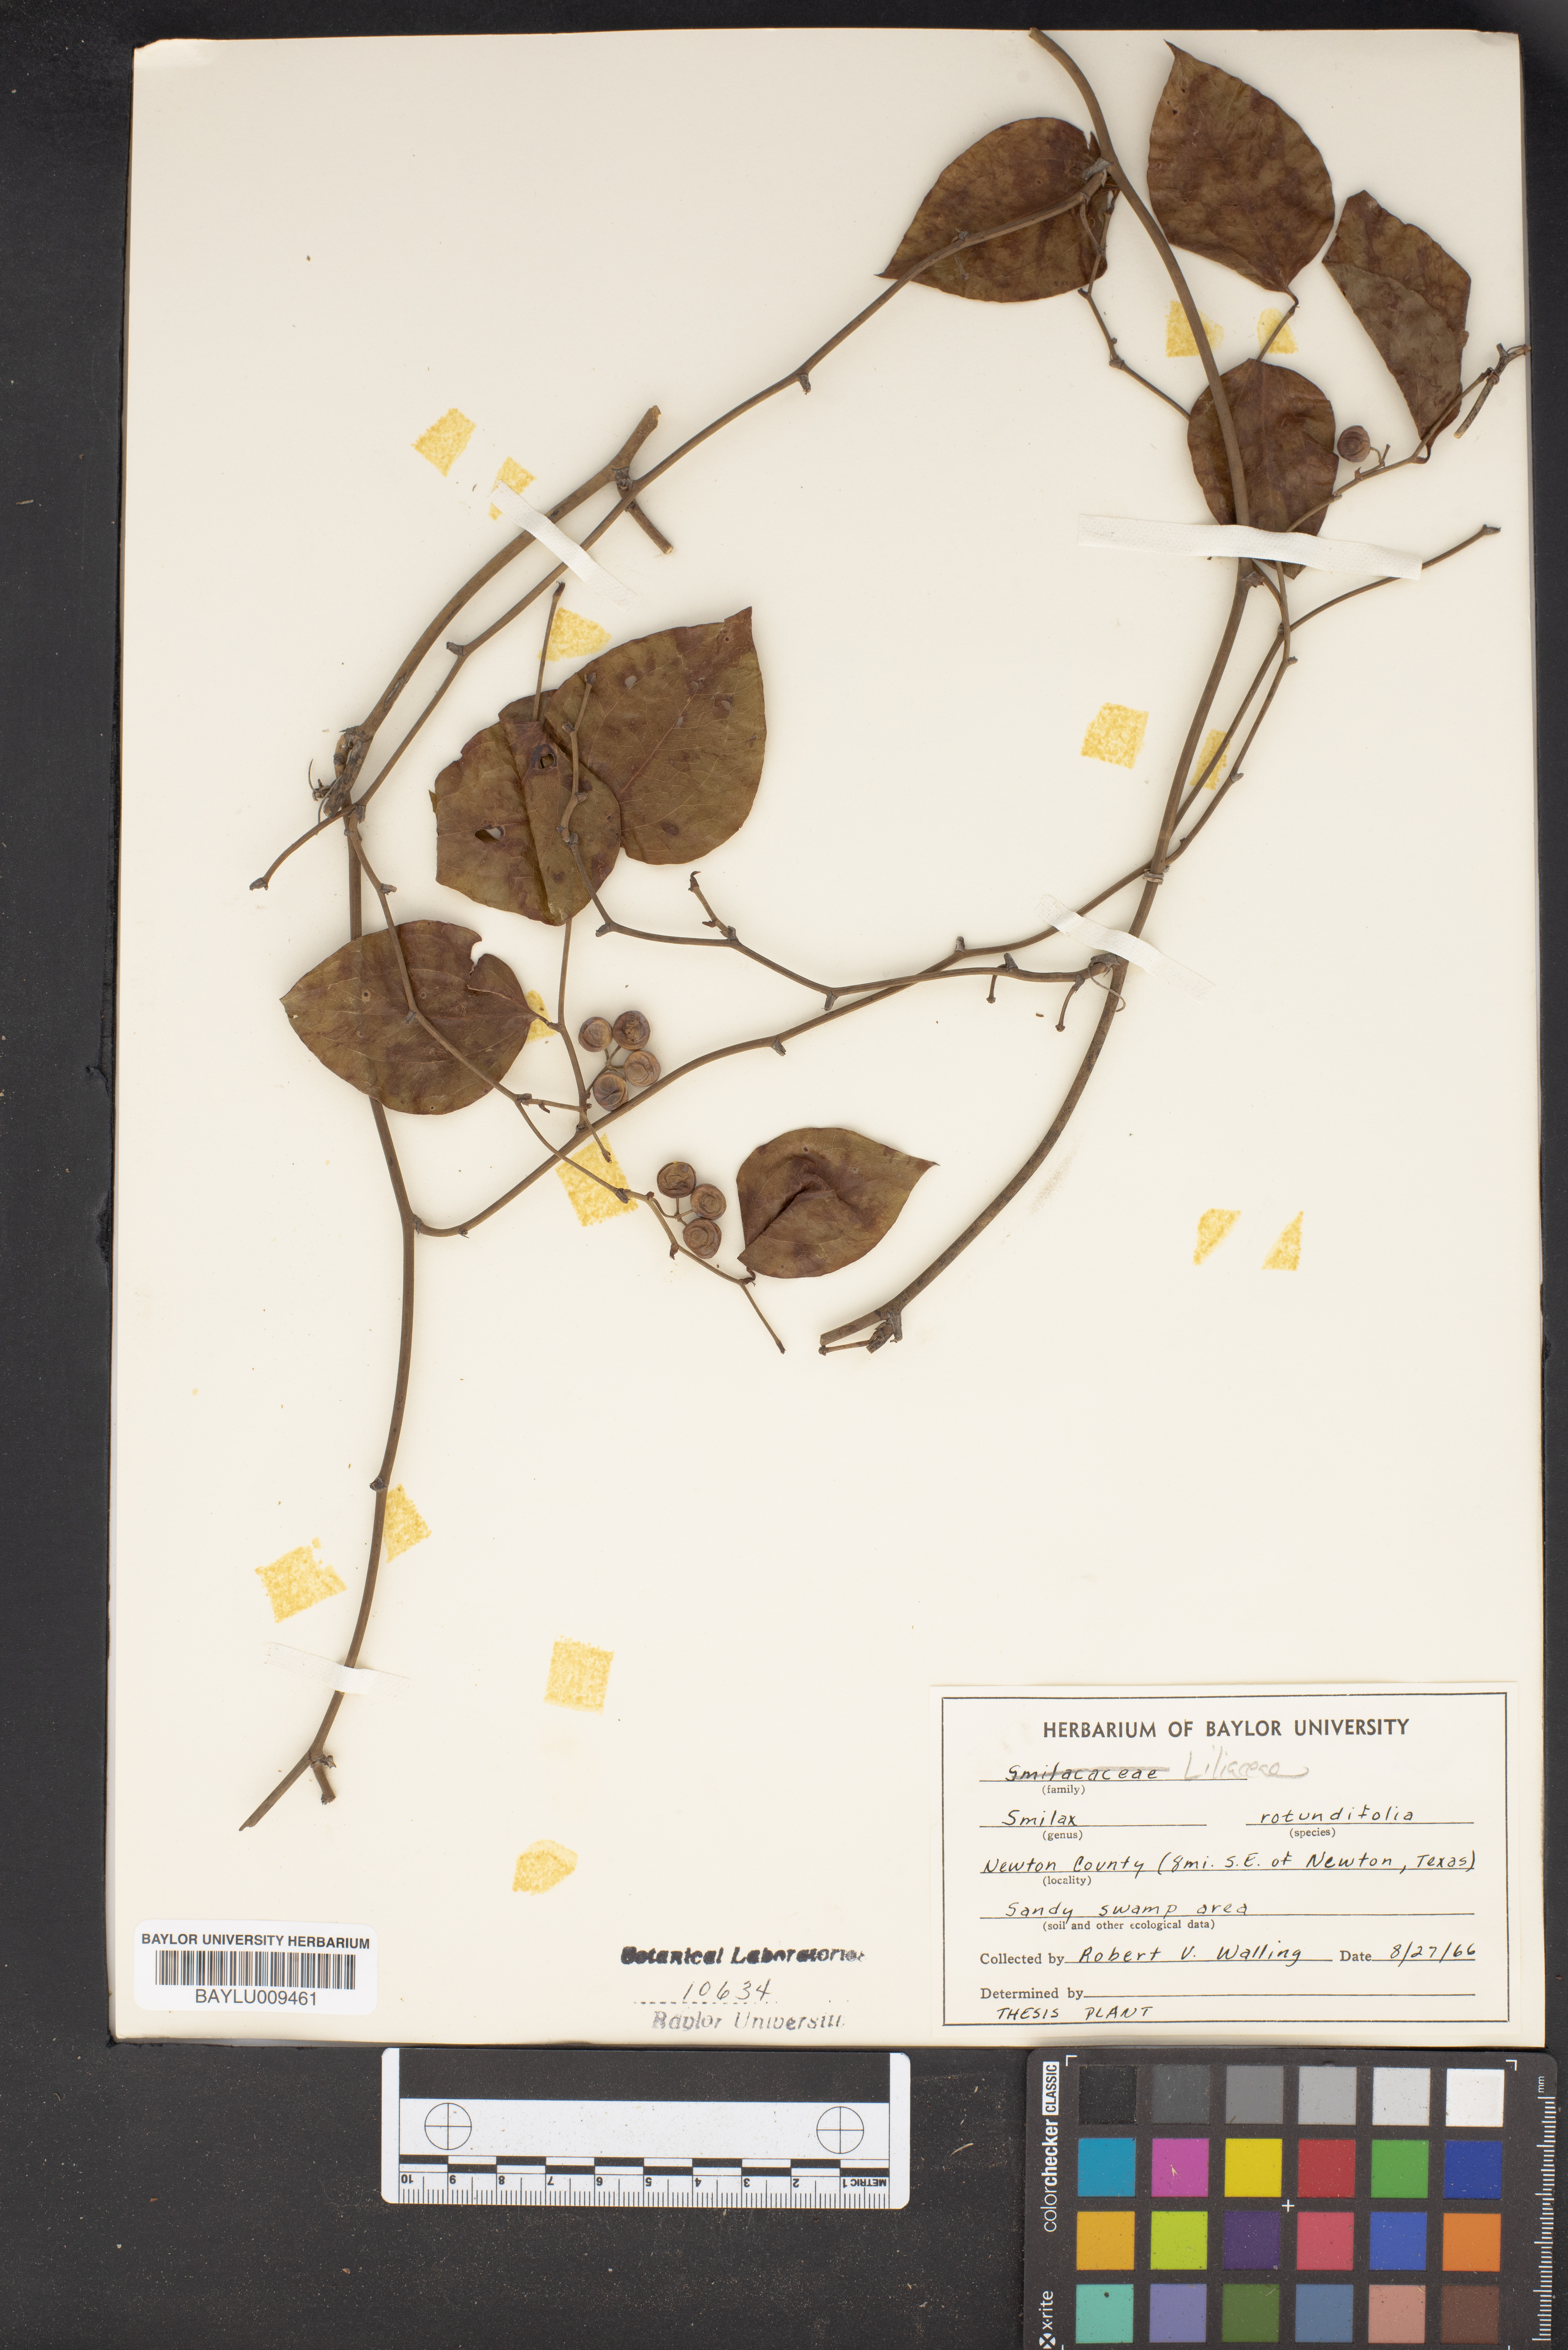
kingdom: Plantae
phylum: Tracheophyta
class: Liliopsida
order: Liliales
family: Smilacaceae
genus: Smilax
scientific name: Smilax rotundifolia
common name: Bullbriar
